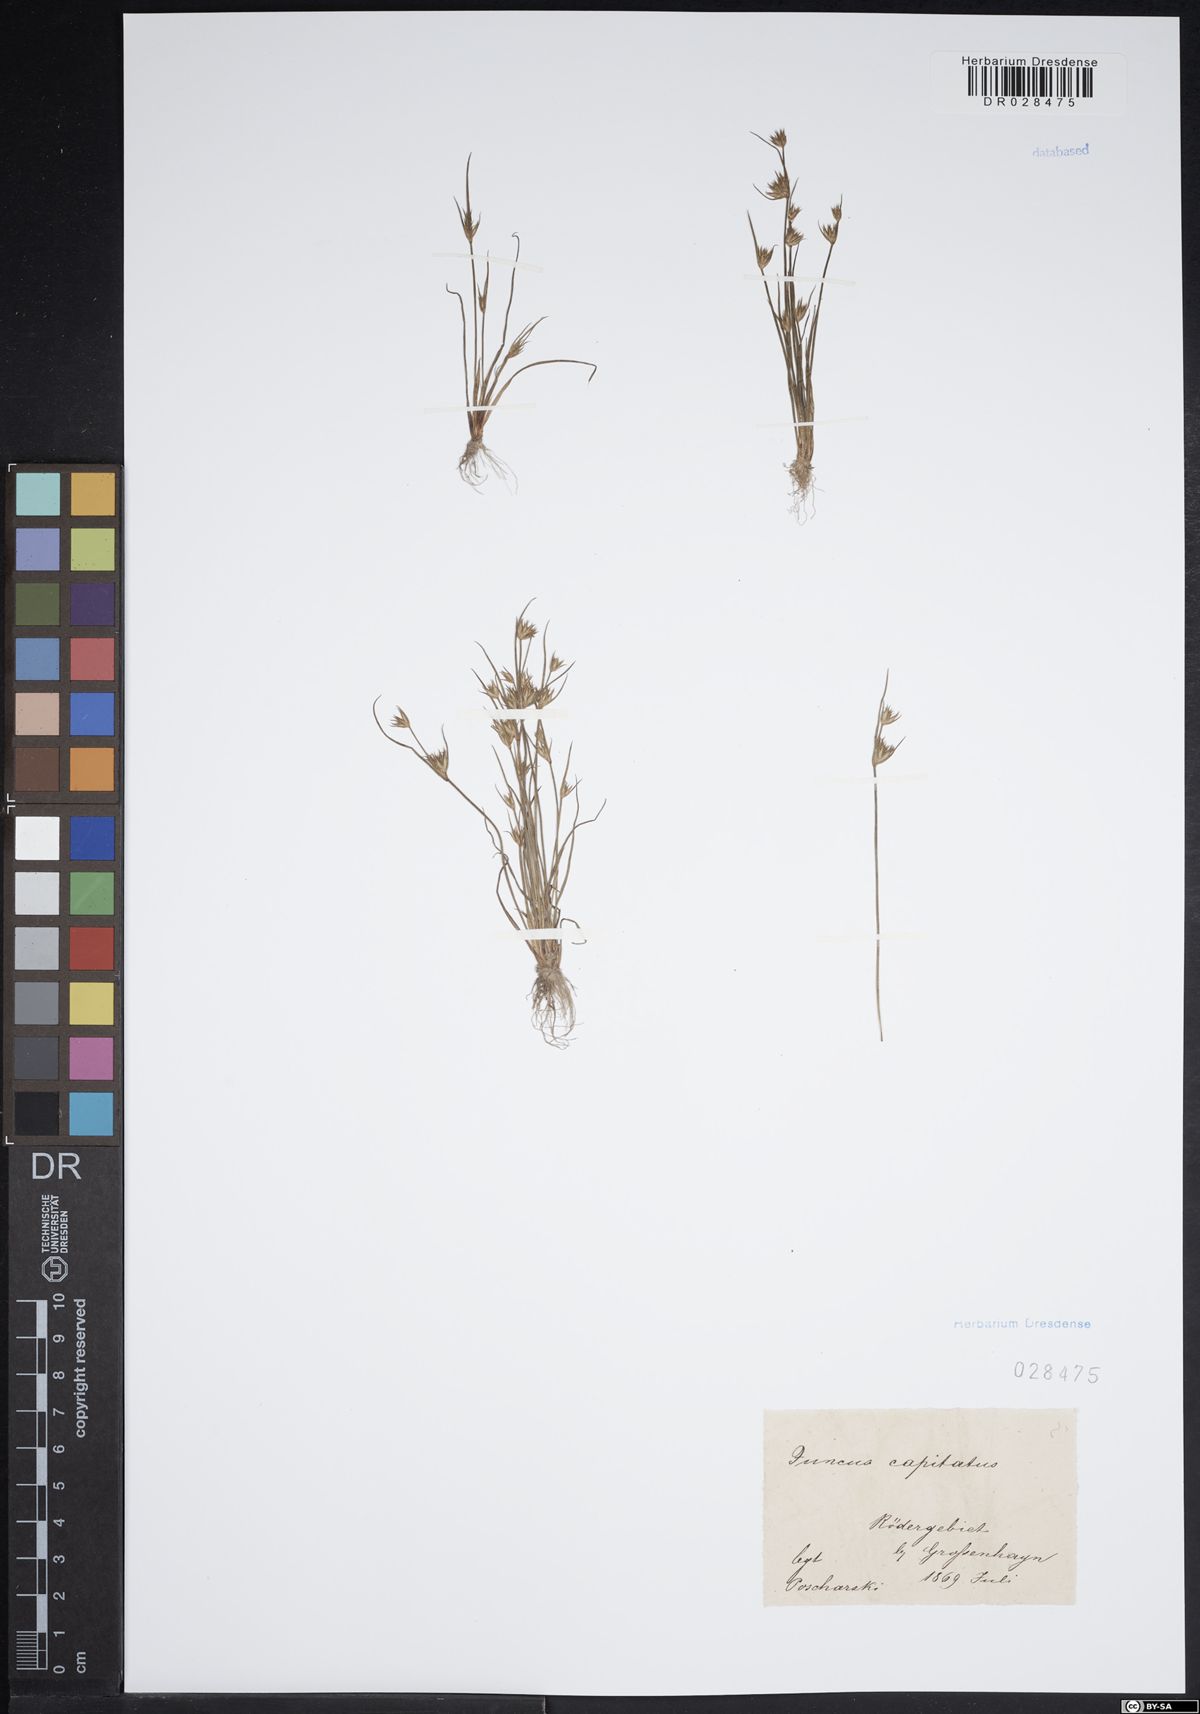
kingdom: Plantae
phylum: Tracheophyta
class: Liliopsida
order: Poales
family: Juncaceae
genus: Juncus
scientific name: Juncus capitatus
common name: Dwarf rush
